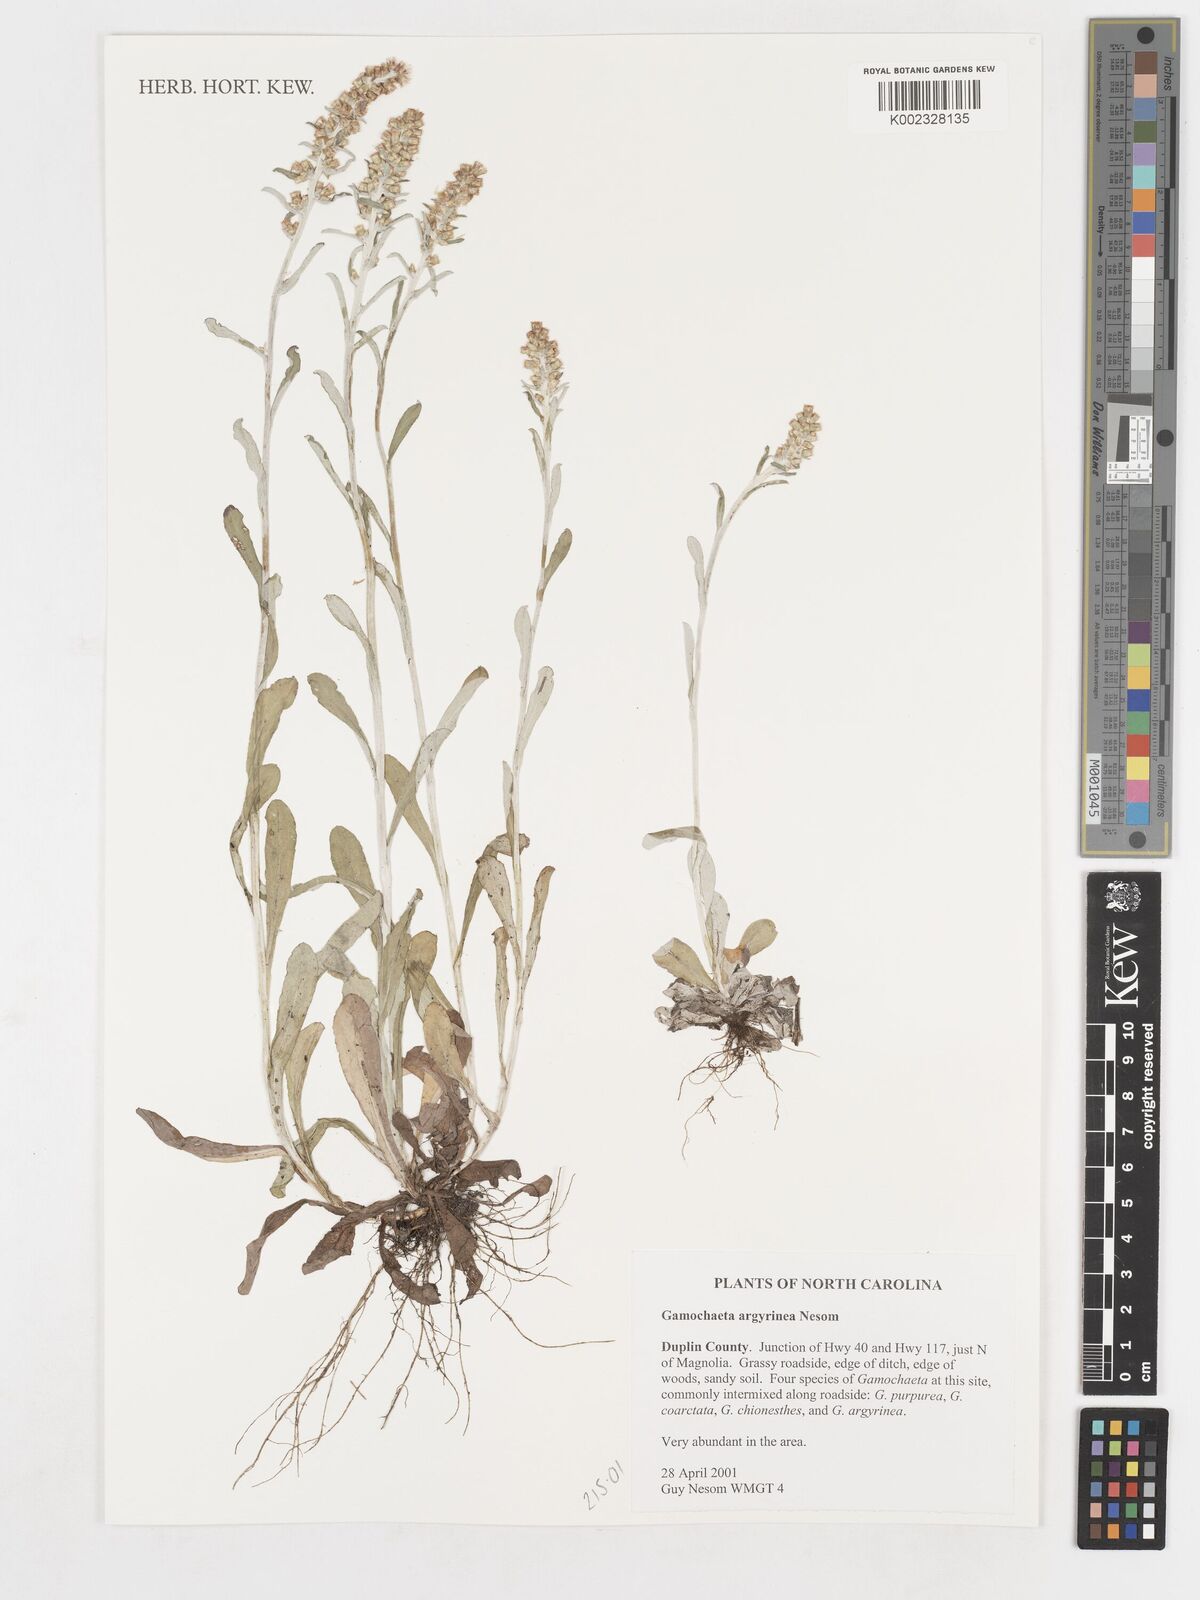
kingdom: Plantae
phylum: Tracheophyta
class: Magnoliopsida
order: Asterales
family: Asteraceae
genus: Gamochaeta
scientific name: Gamochaeta argyrinea
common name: Silvery cudweed
